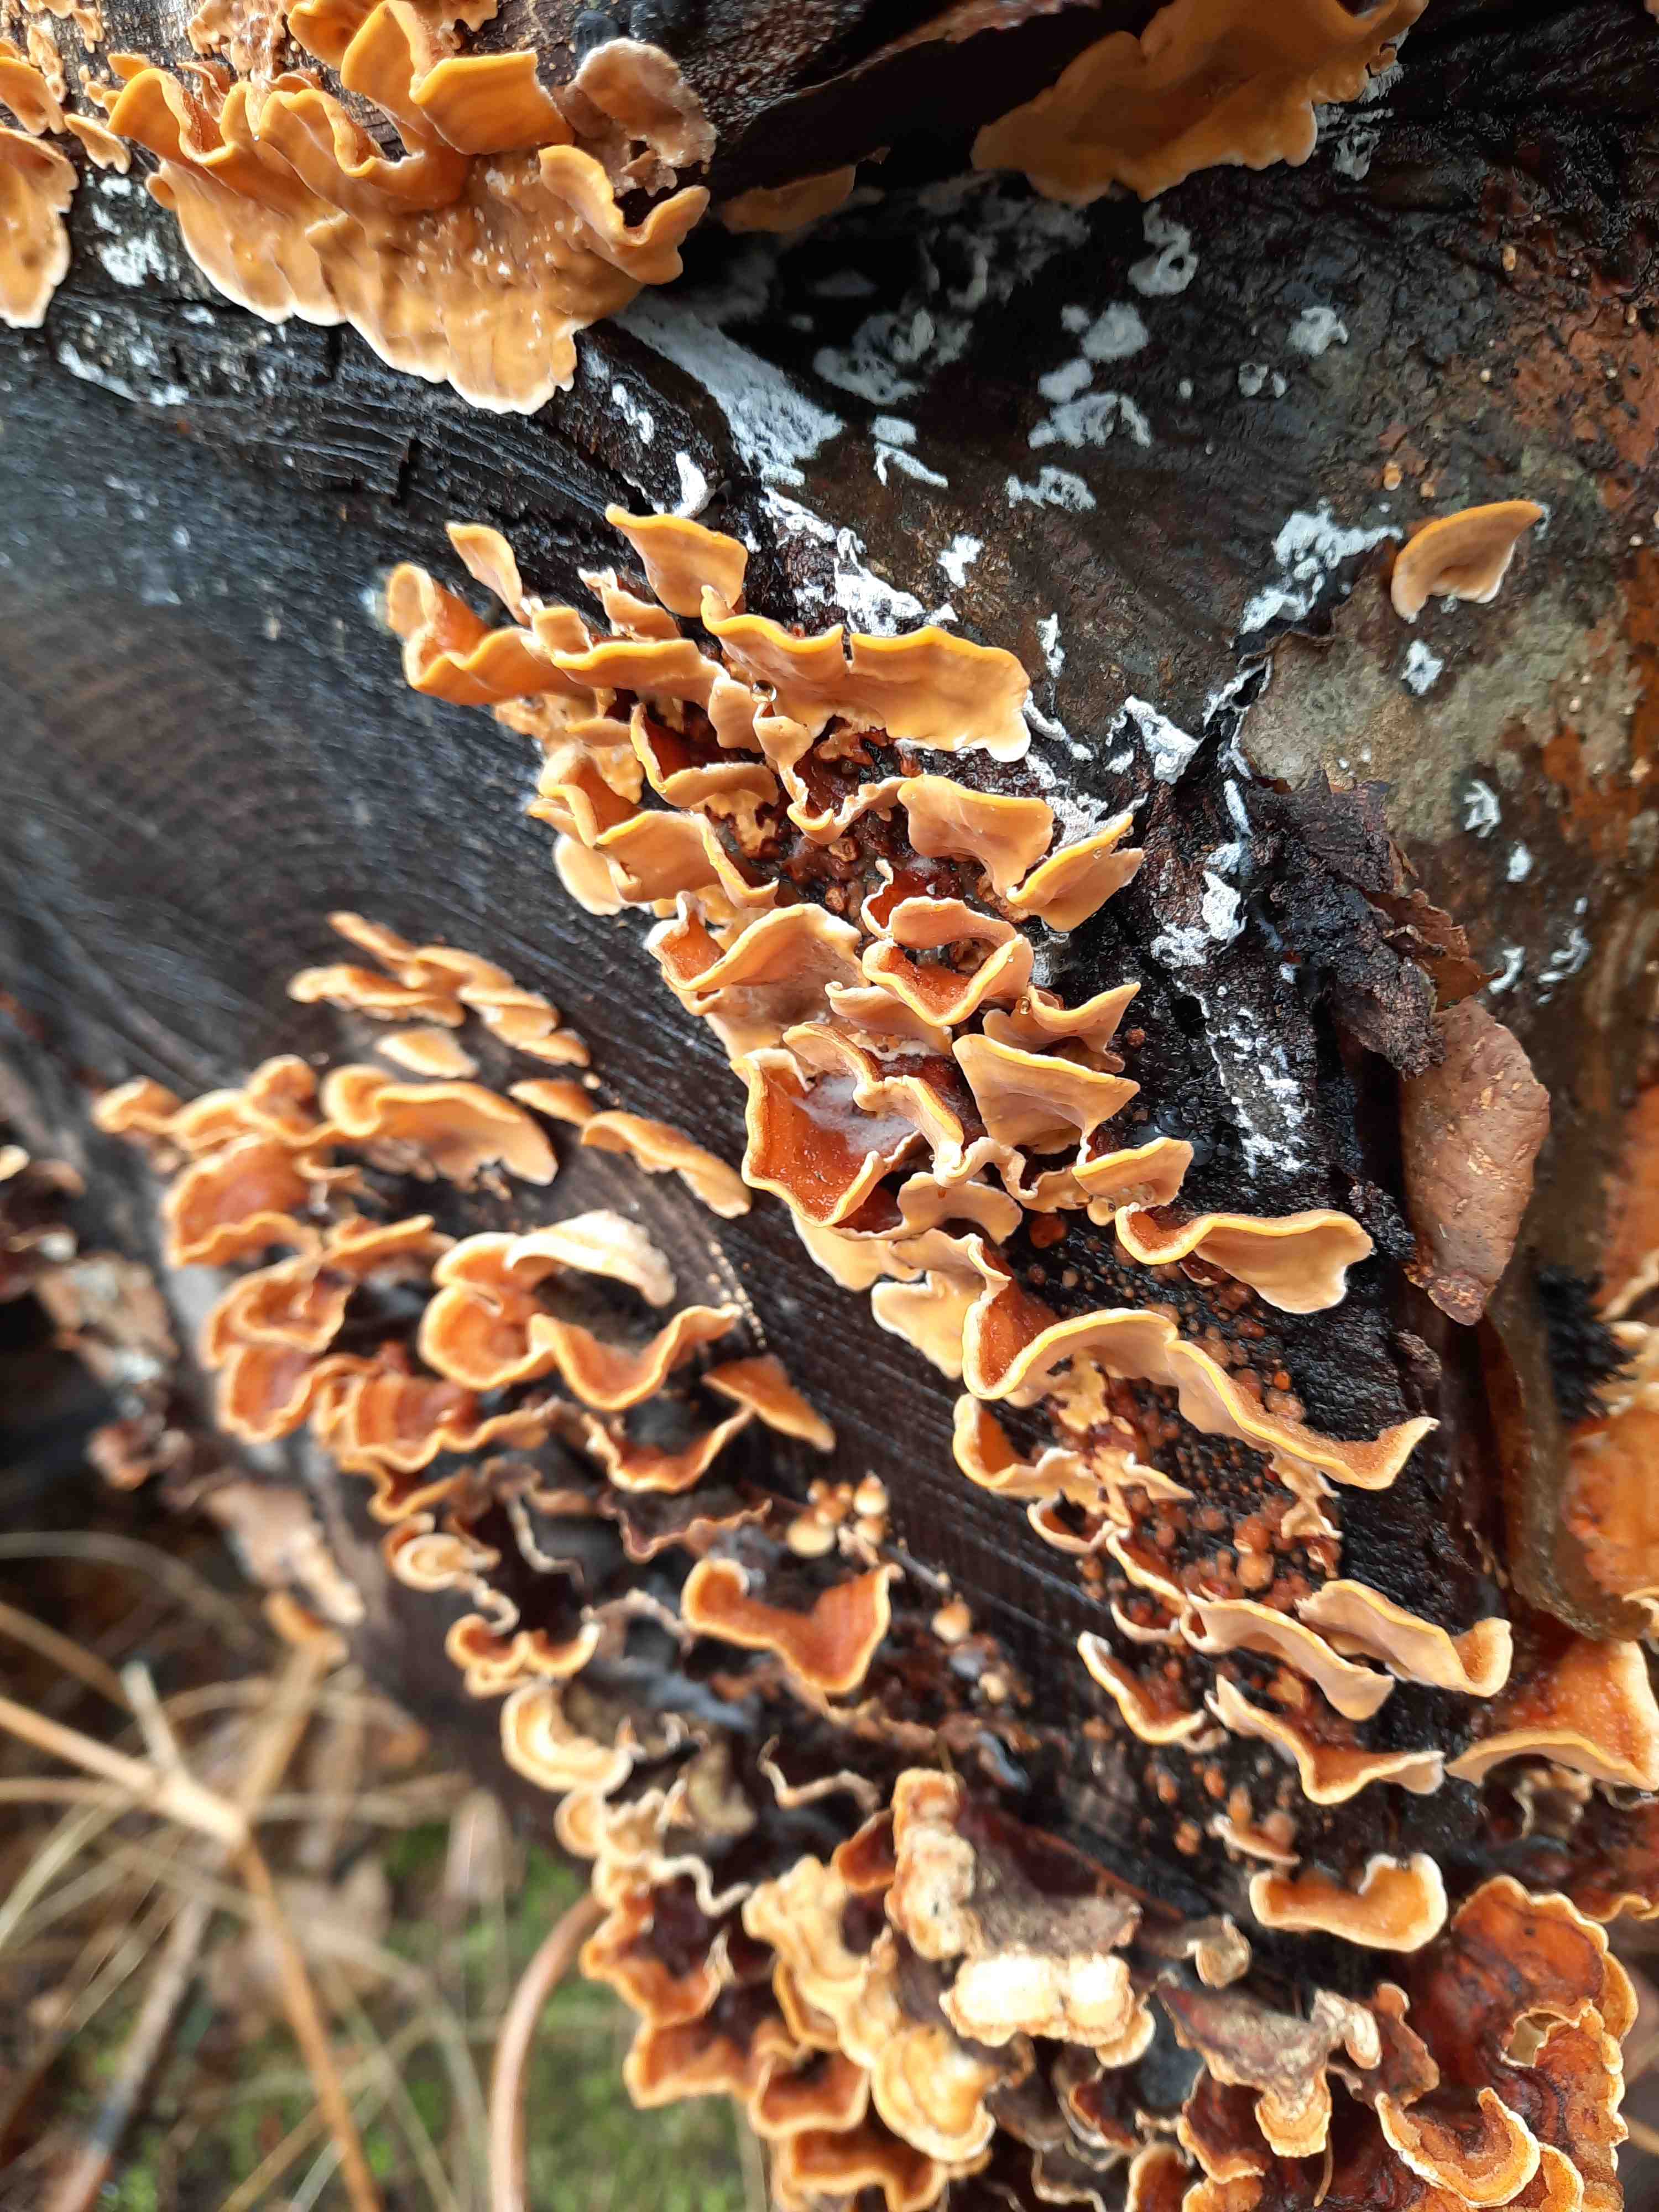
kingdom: Fungi
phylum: Basidiomycota
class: Agaricomycetes
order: Russulales
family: Stereaceae
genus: Stereum
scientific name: Stereum hirsutum
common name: håret lædersvamp
